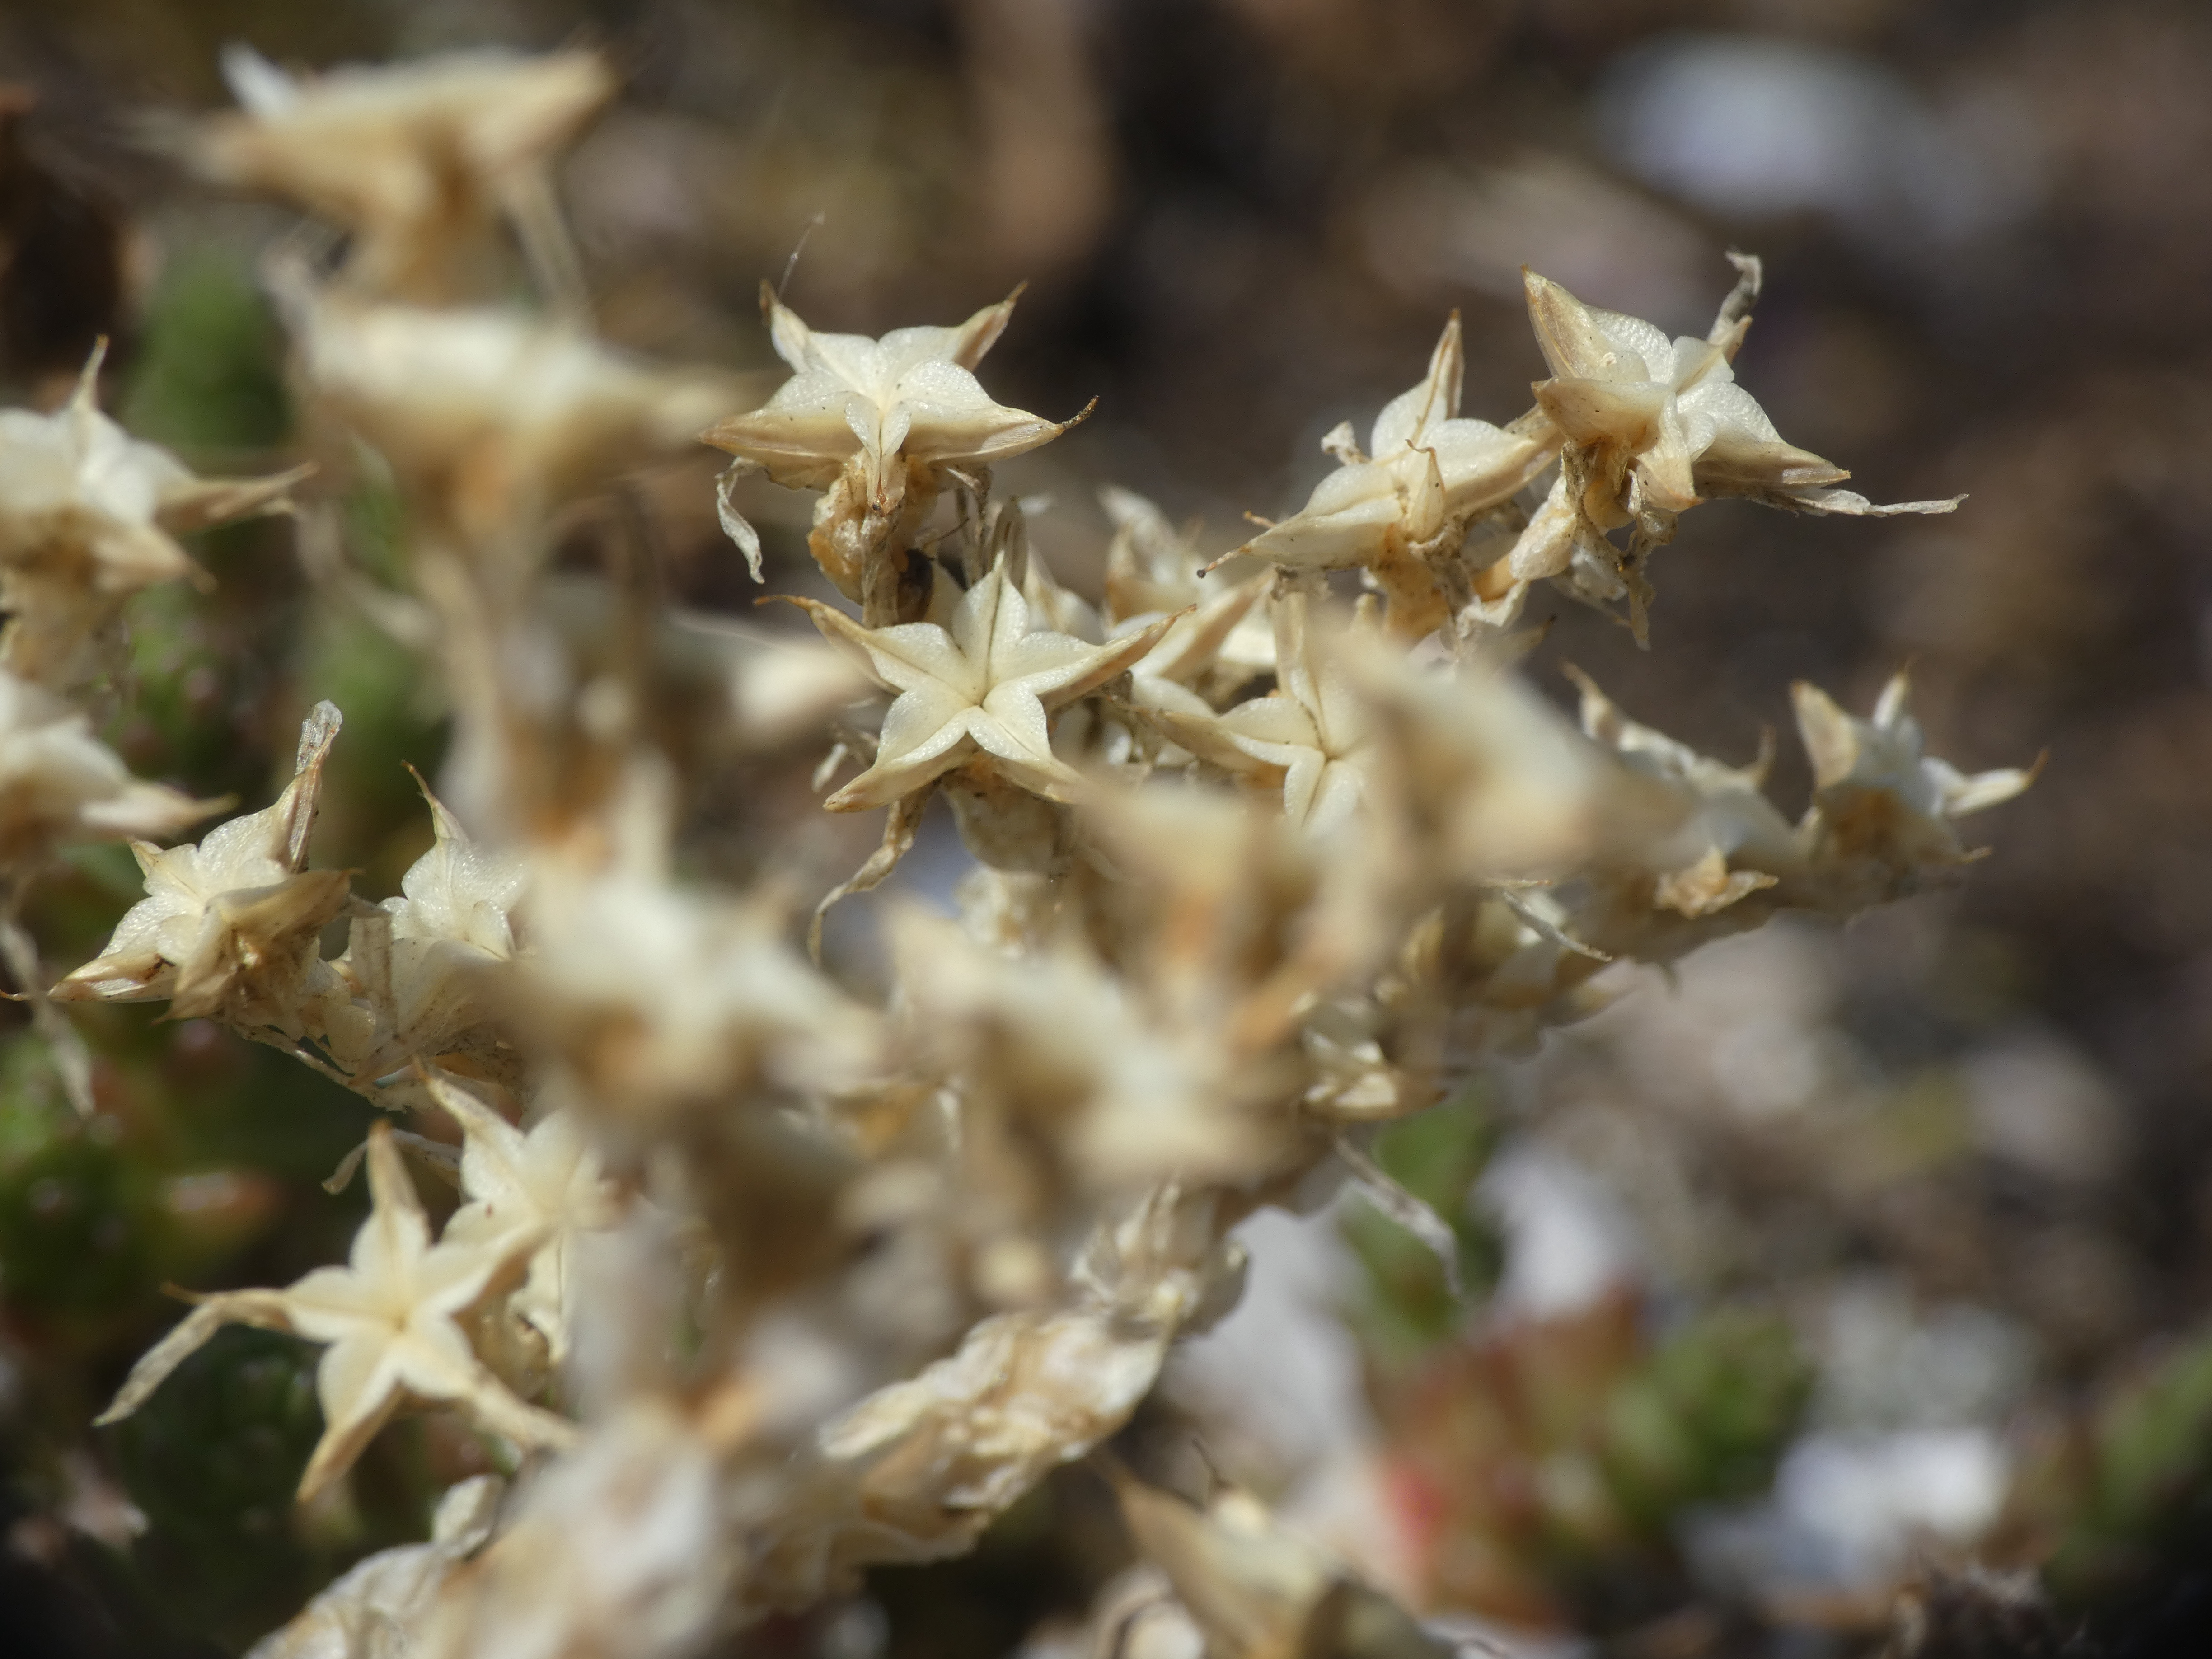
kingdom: Plantae
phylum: Tracheophyta
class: Magnoliopsida
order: Saxifragales
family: Crassulaceae
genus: Sedum
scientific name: Sedum acre
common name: Bidende stenurt
